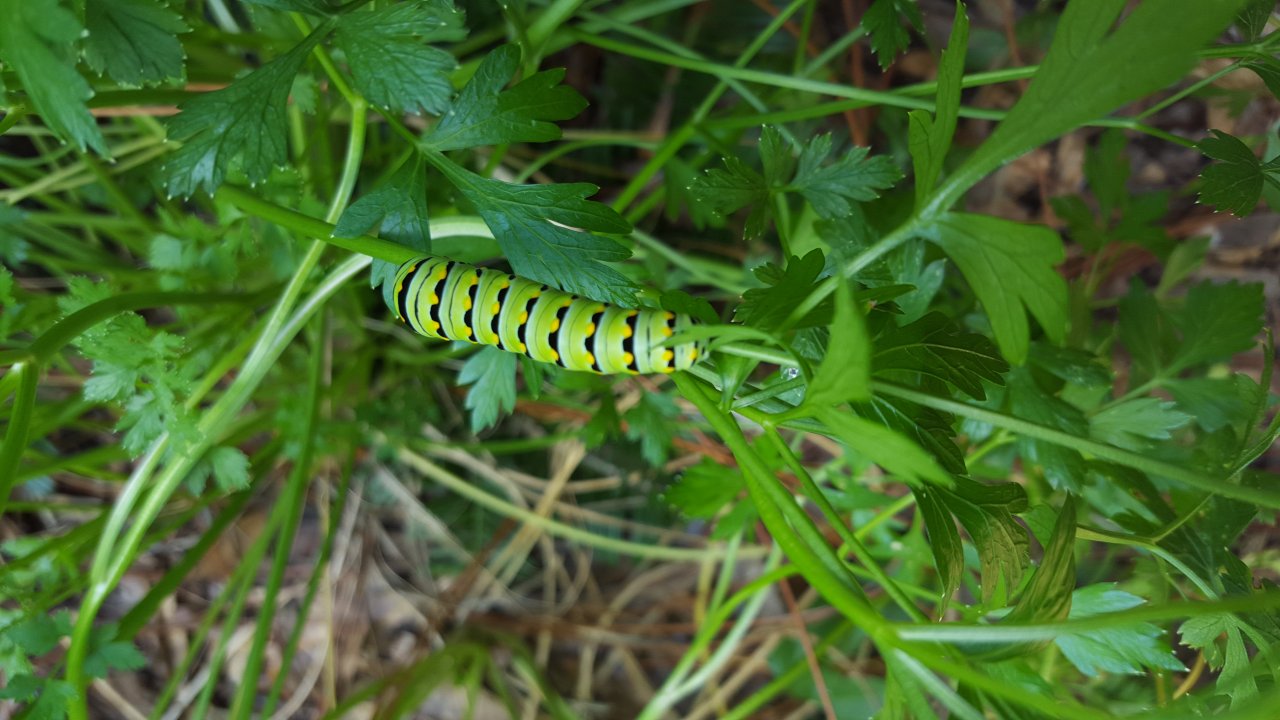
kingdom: Animalia
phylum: Arthropoda
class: Insecta
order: Lepidoptera
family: Papilionidae
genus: Papilio
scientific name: Papilio polyxenes
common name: Black Swallowtail
